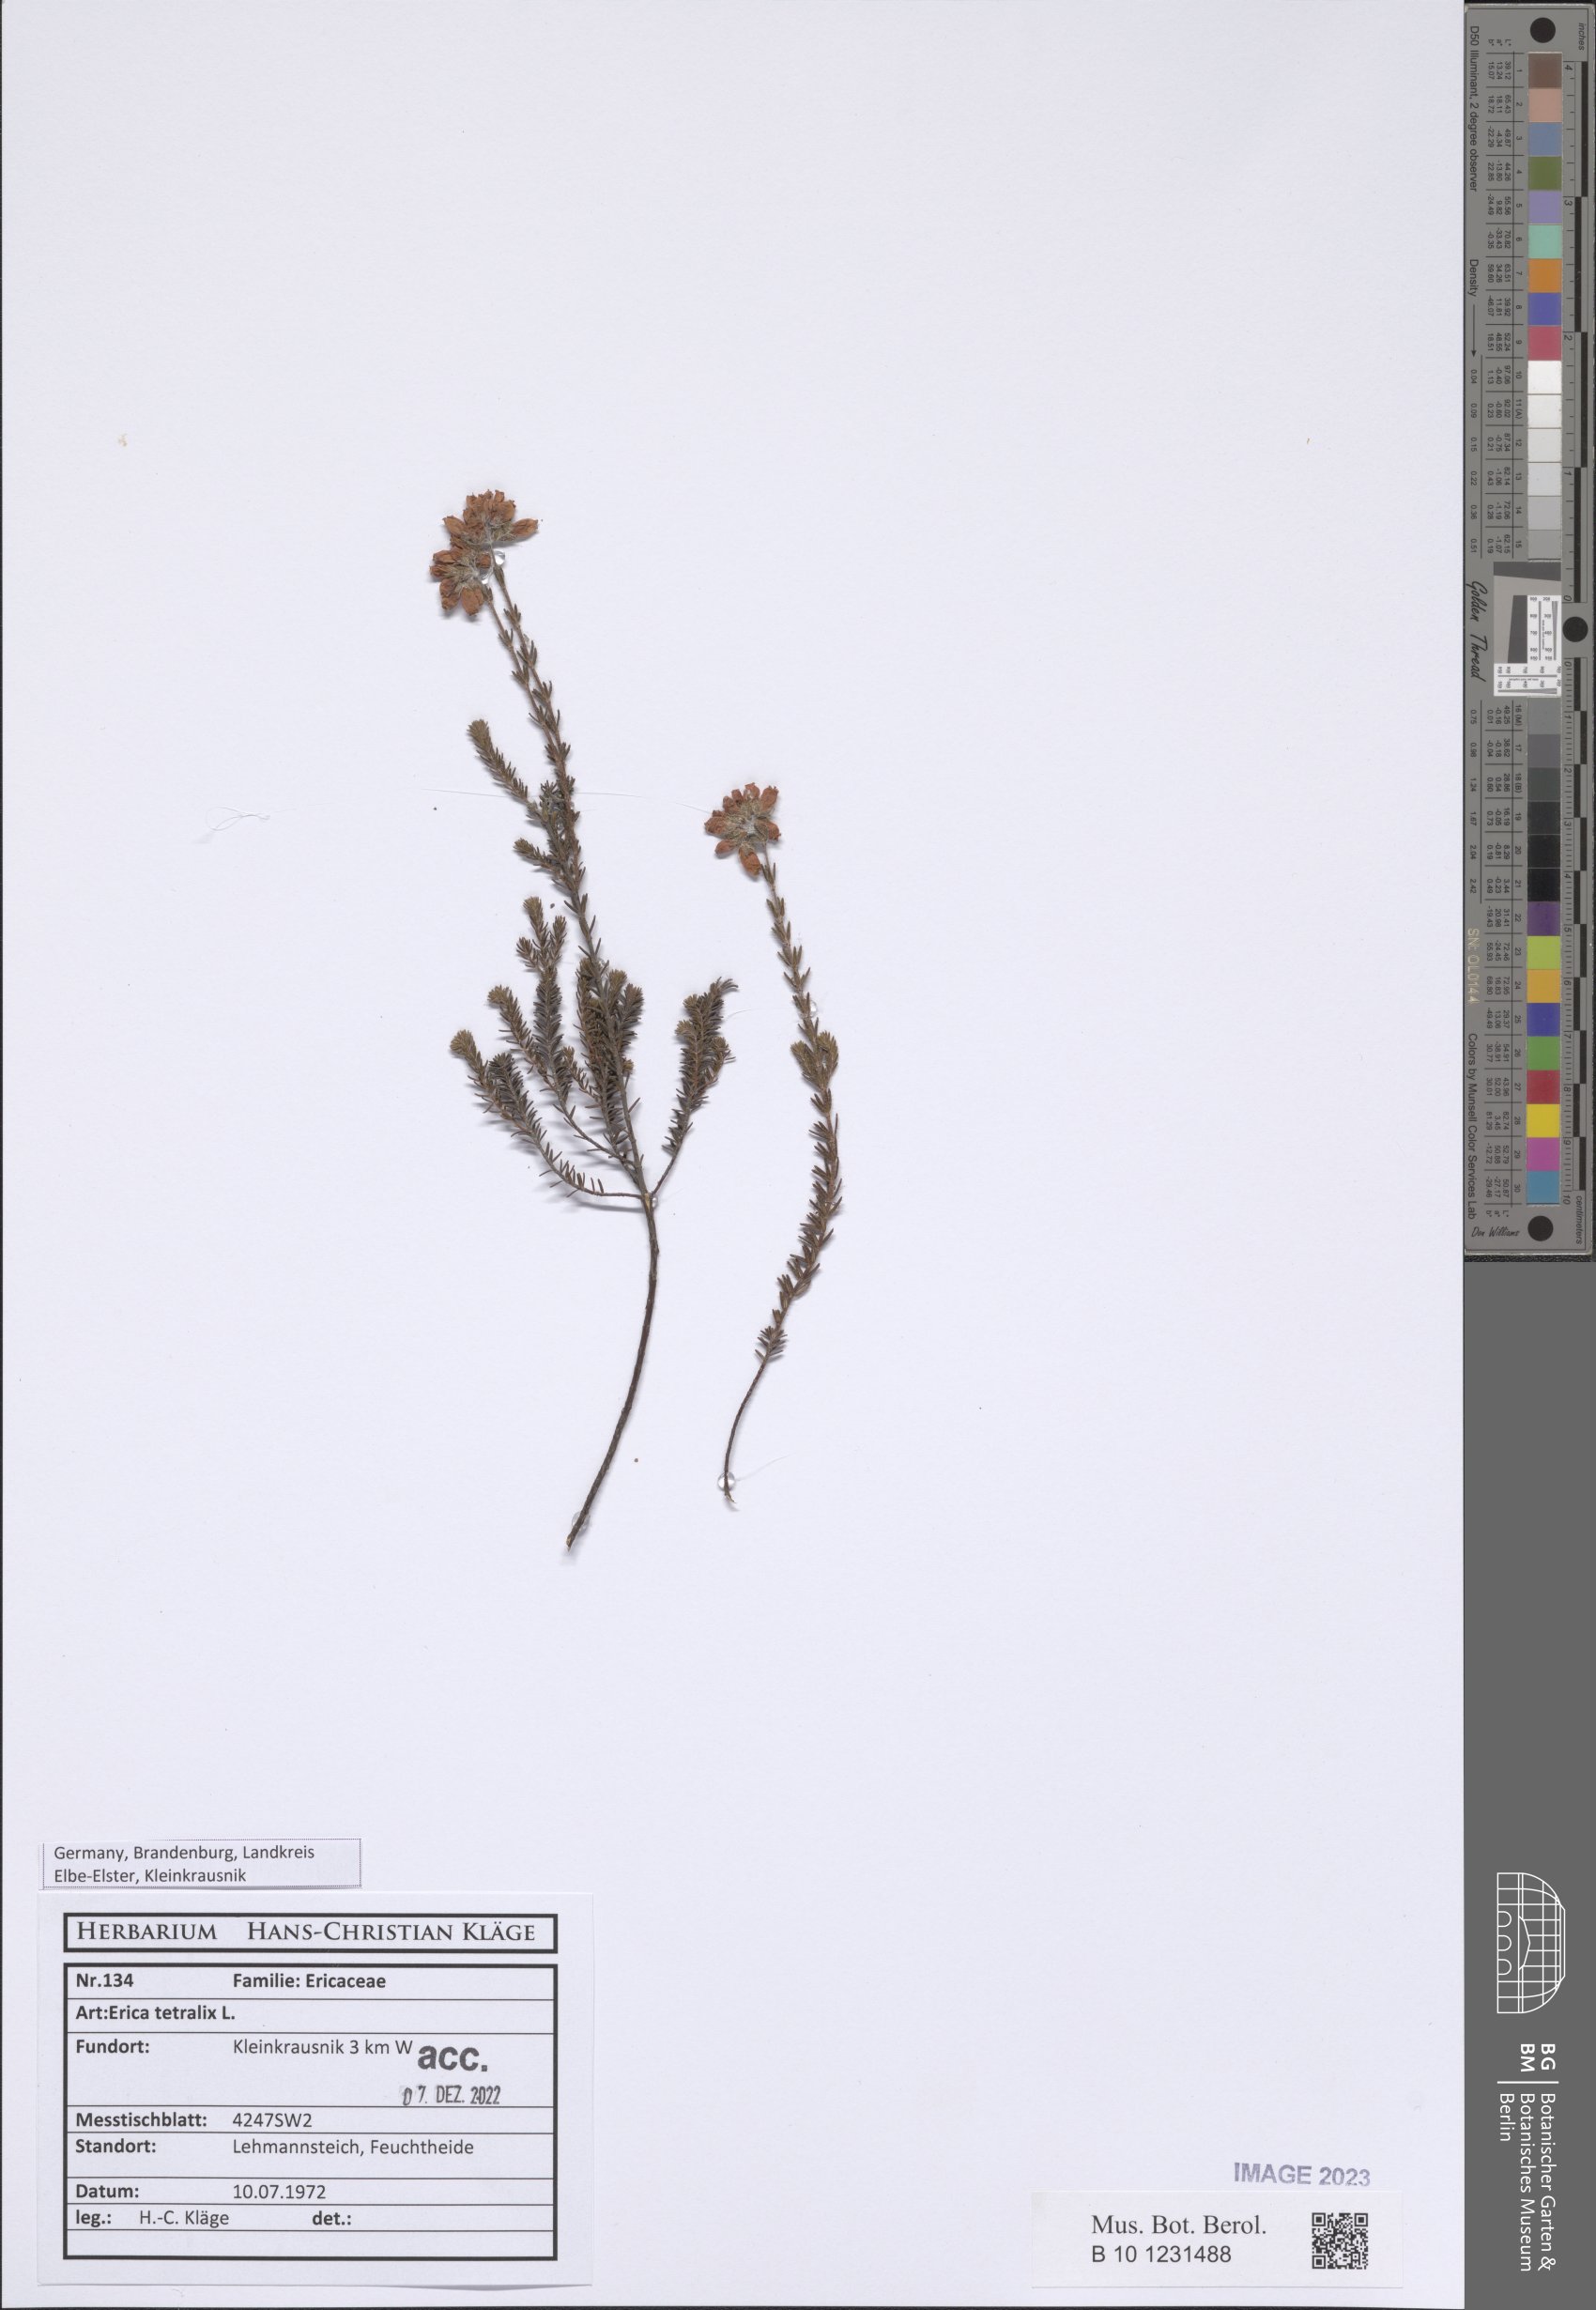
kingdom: Plantae
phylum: Tracheophyta
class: Magnoliopsida
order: Ericales
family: Ericaceae
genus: Erica
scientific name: Erica tetralix
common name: Cross-leaved heath
